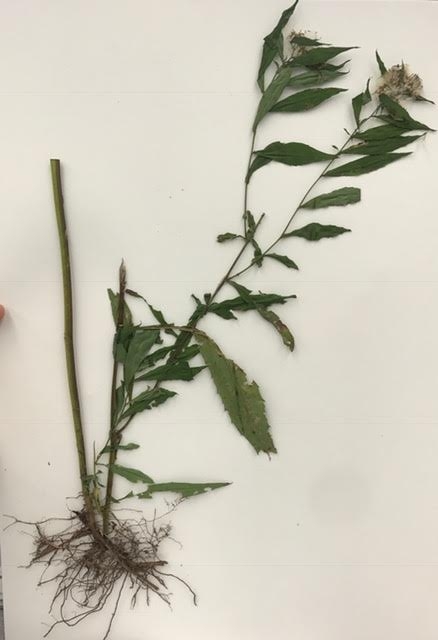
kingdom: Plantae
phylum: Tracheophyta
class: Magnoliopsida
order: Asterales
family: Asteraceae
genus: Symphyotrichum
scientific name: Symphyotrichum lanceolatum
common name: Aster
